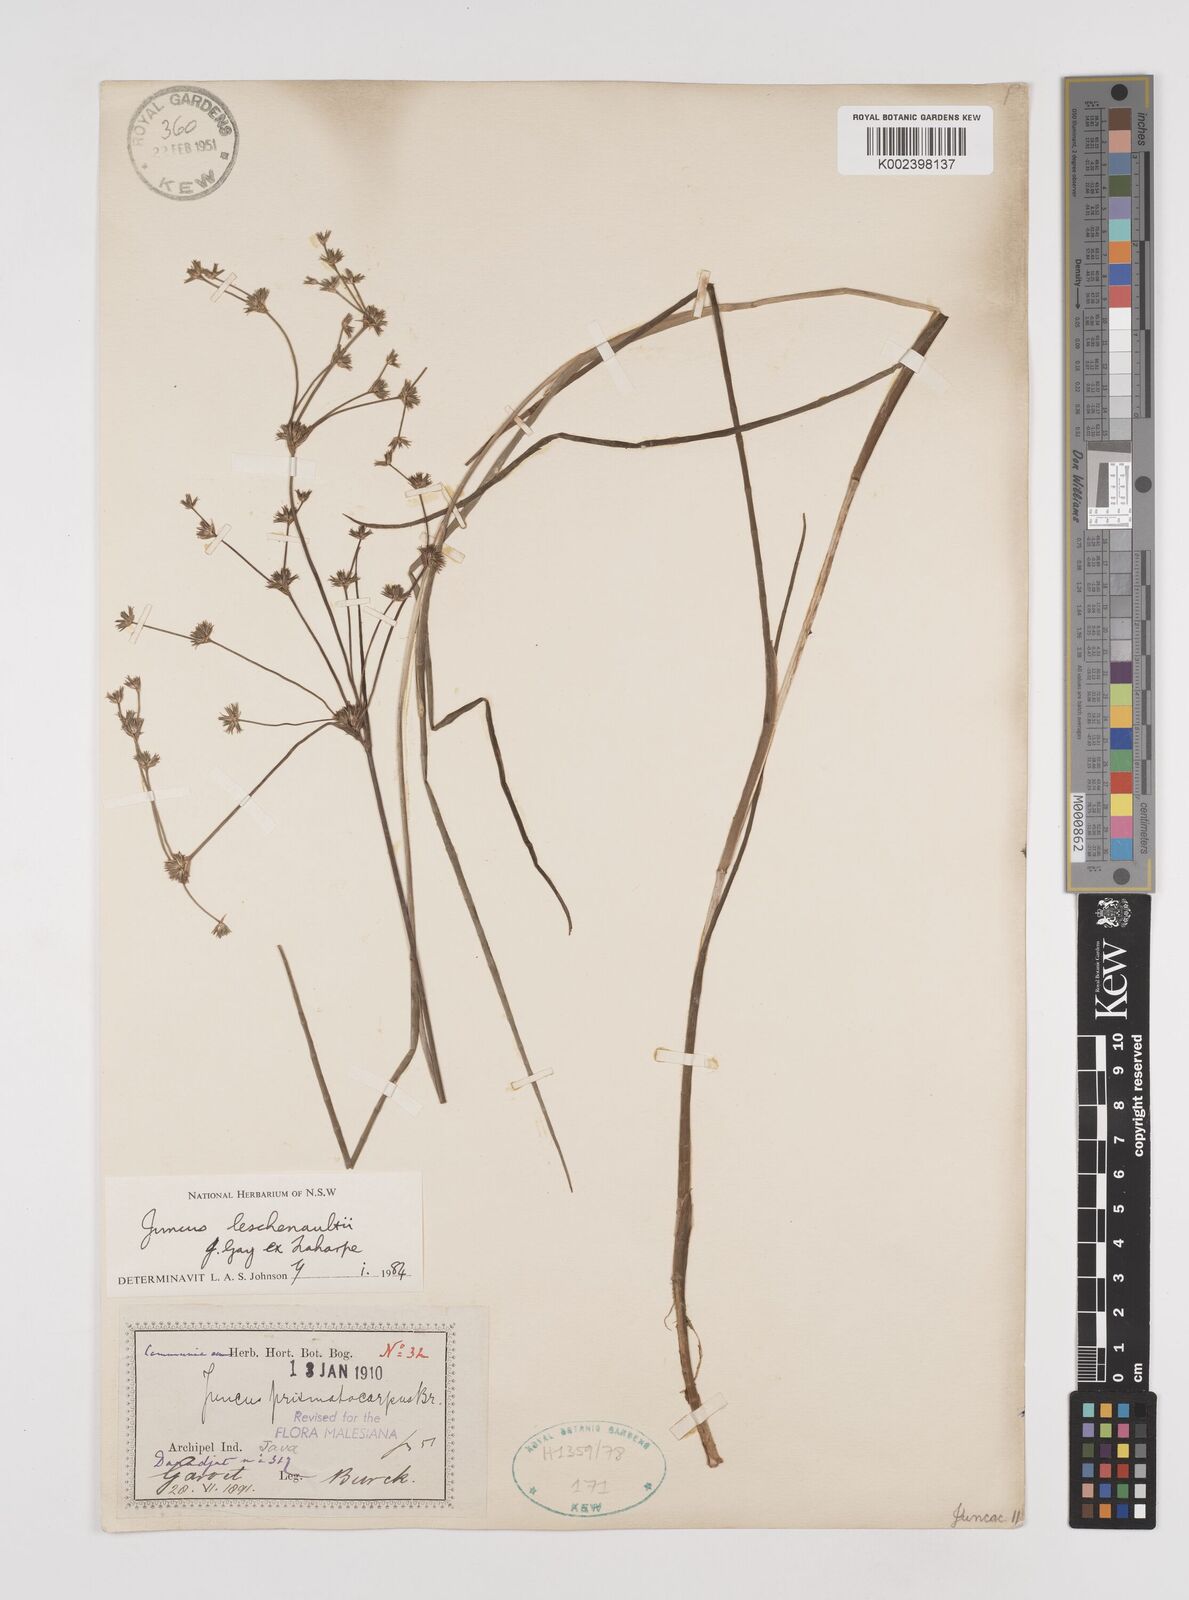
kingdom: Plantae
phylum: Tracheophyta
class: Liliopsida
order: Poales
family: Juncaceae
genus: Juncus
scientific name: Juncus prismatocarpus
